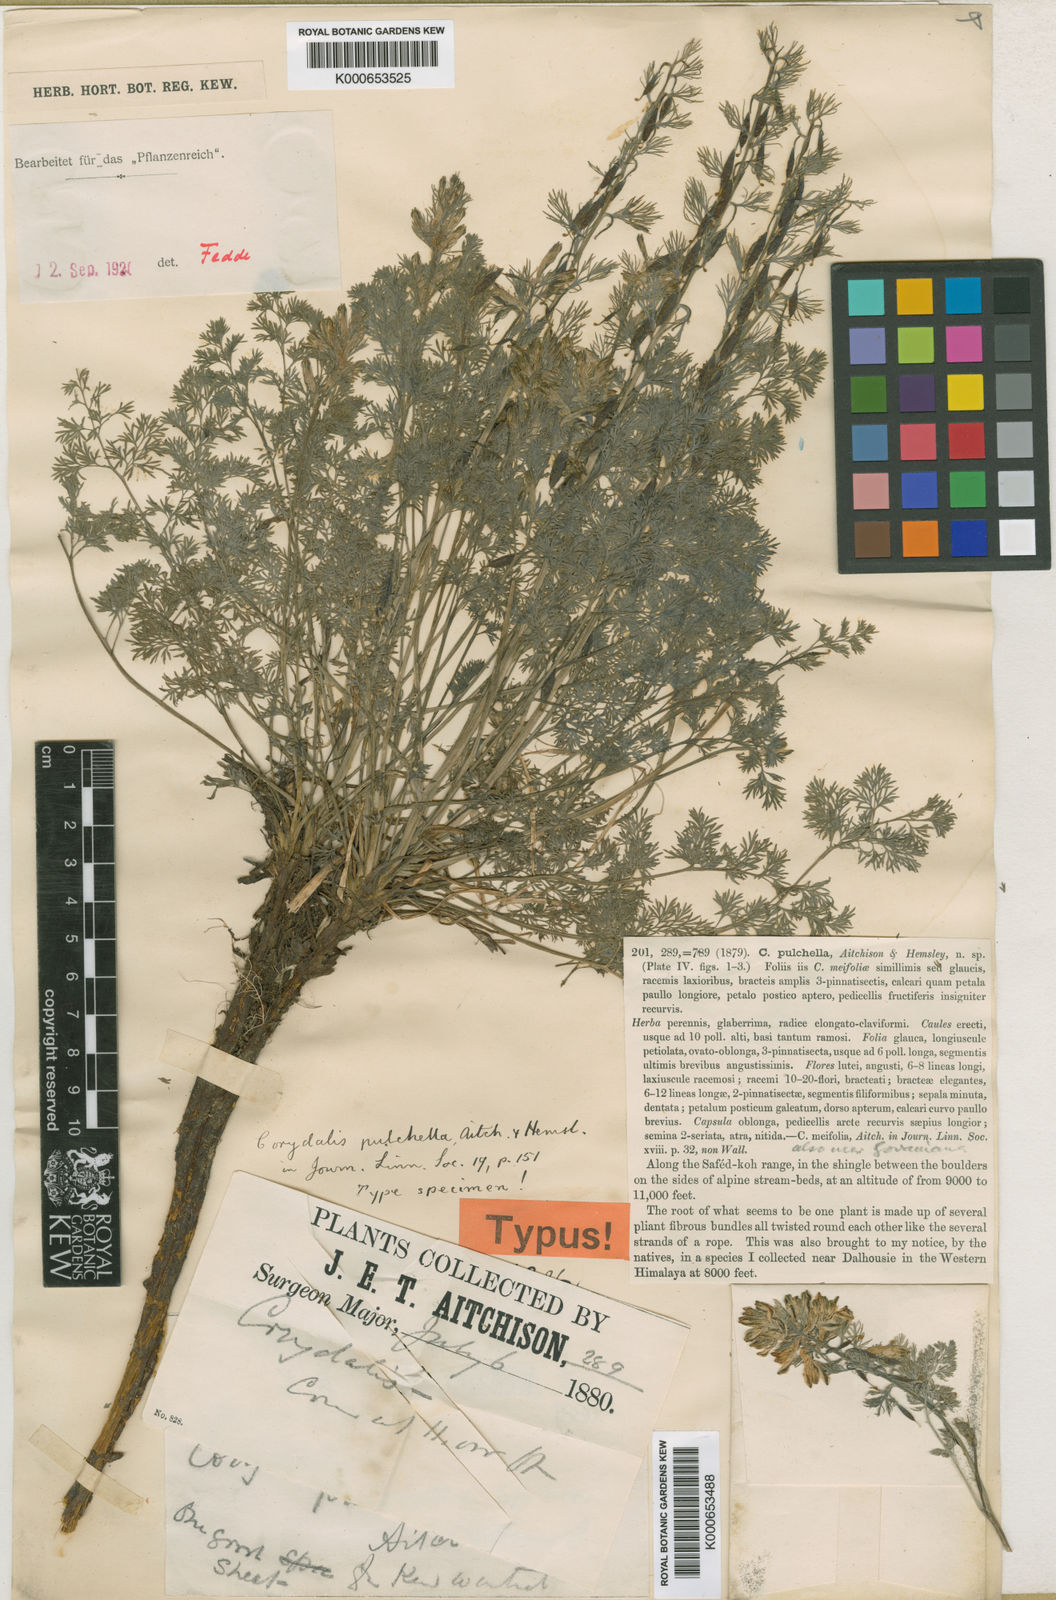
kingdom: Plantae
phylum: Tracheophyta
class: Magnoliopsida
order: Ranunculales
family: Papaveraceae
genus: Corydalis
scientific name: Corydalis pulchella
